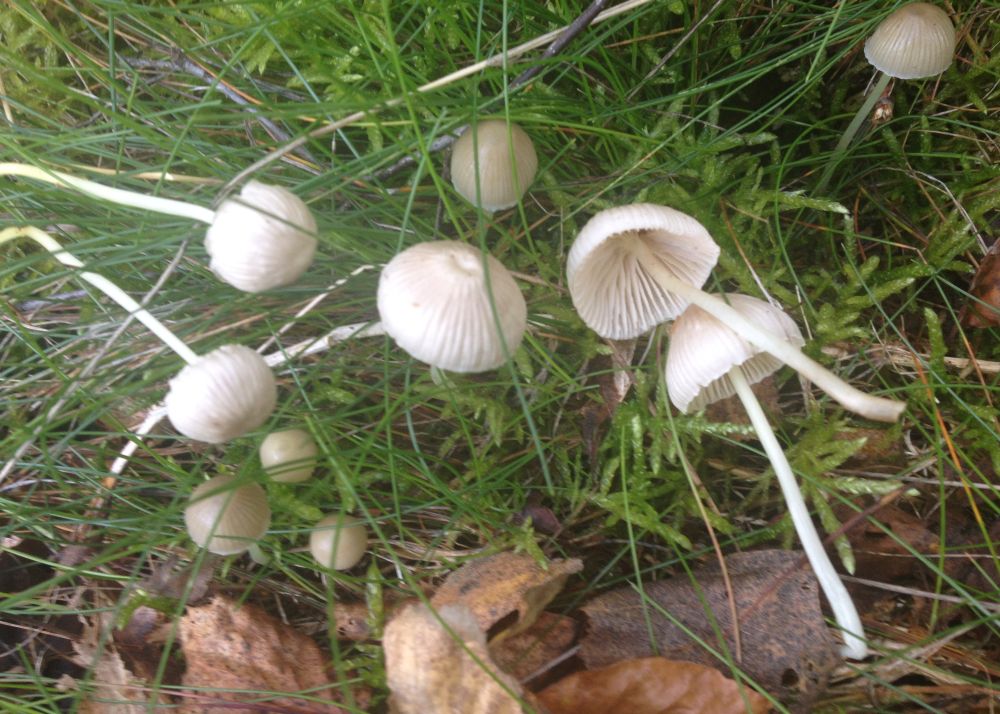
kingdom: Fungi
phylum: Basidiomycota
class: Agaricomycetes
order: Agaricales
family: Mycenaceae
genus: Mycena
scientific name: Mycena epipterygia
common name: gulstokket huesvamp
